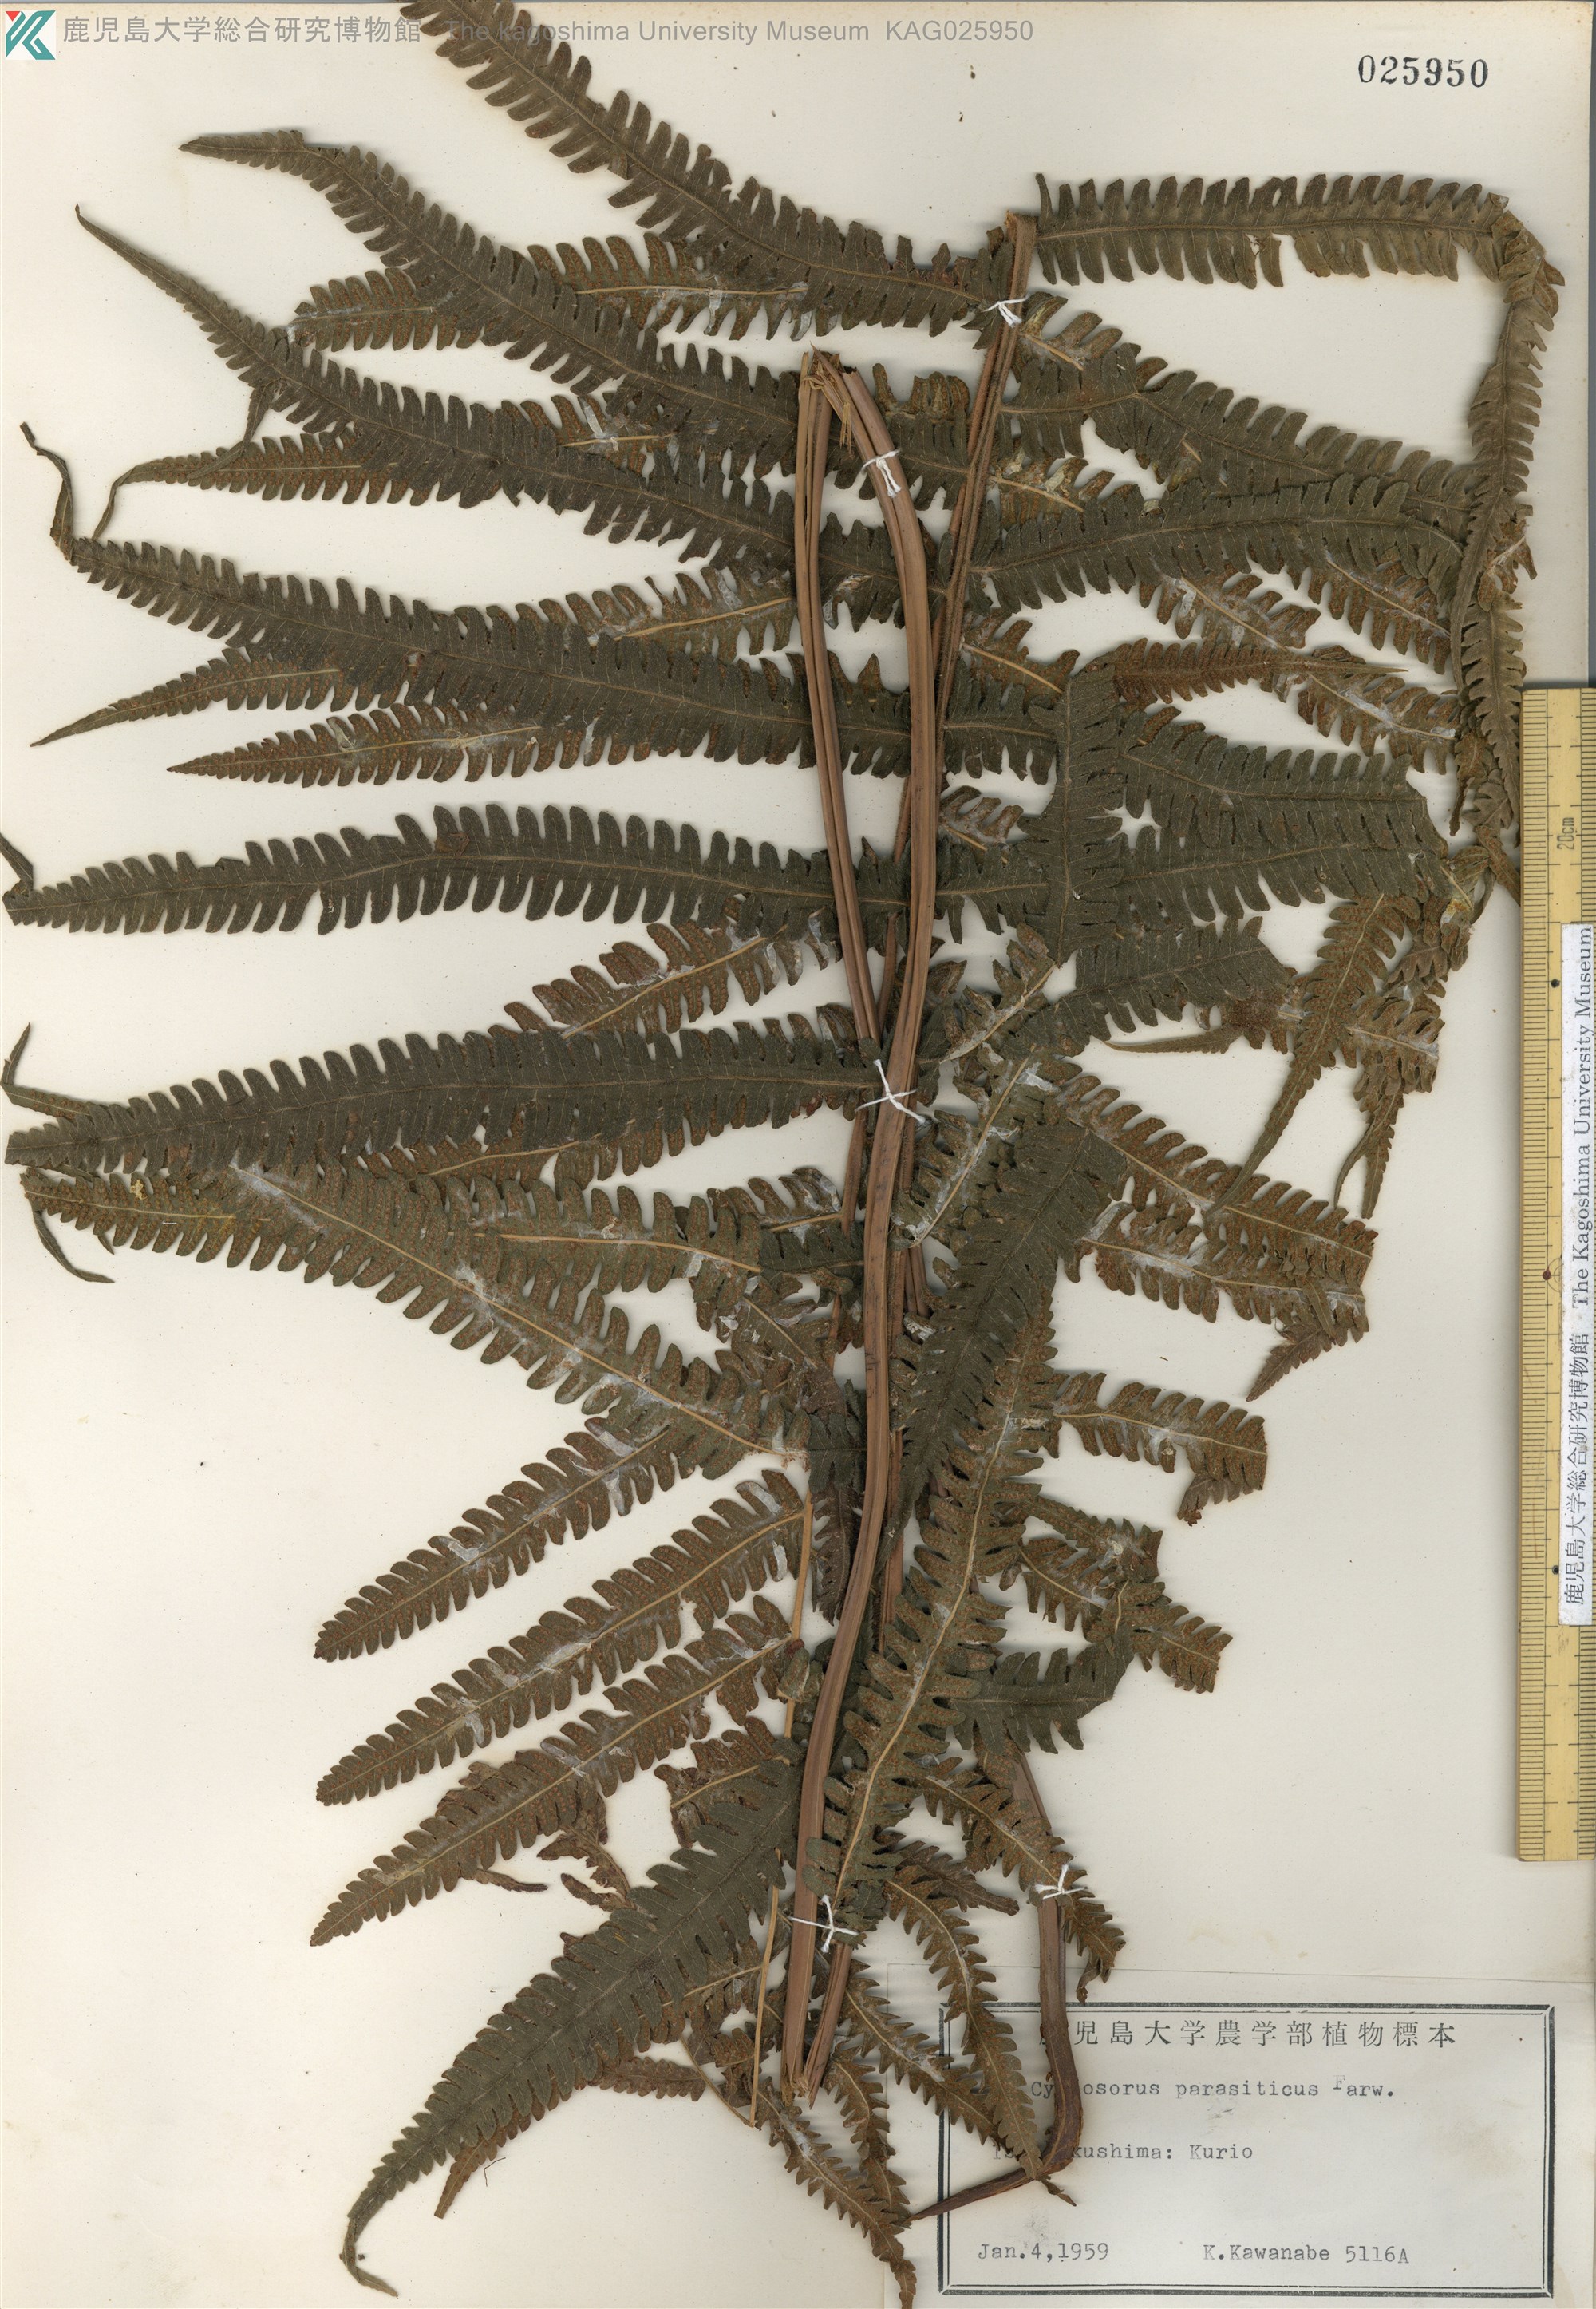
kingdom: Plantae
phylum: Tracheophyta
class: Polypodiopsida
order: Polypodiales
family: Thelypteridaceae
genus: Christella
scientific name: Christella parasitica
